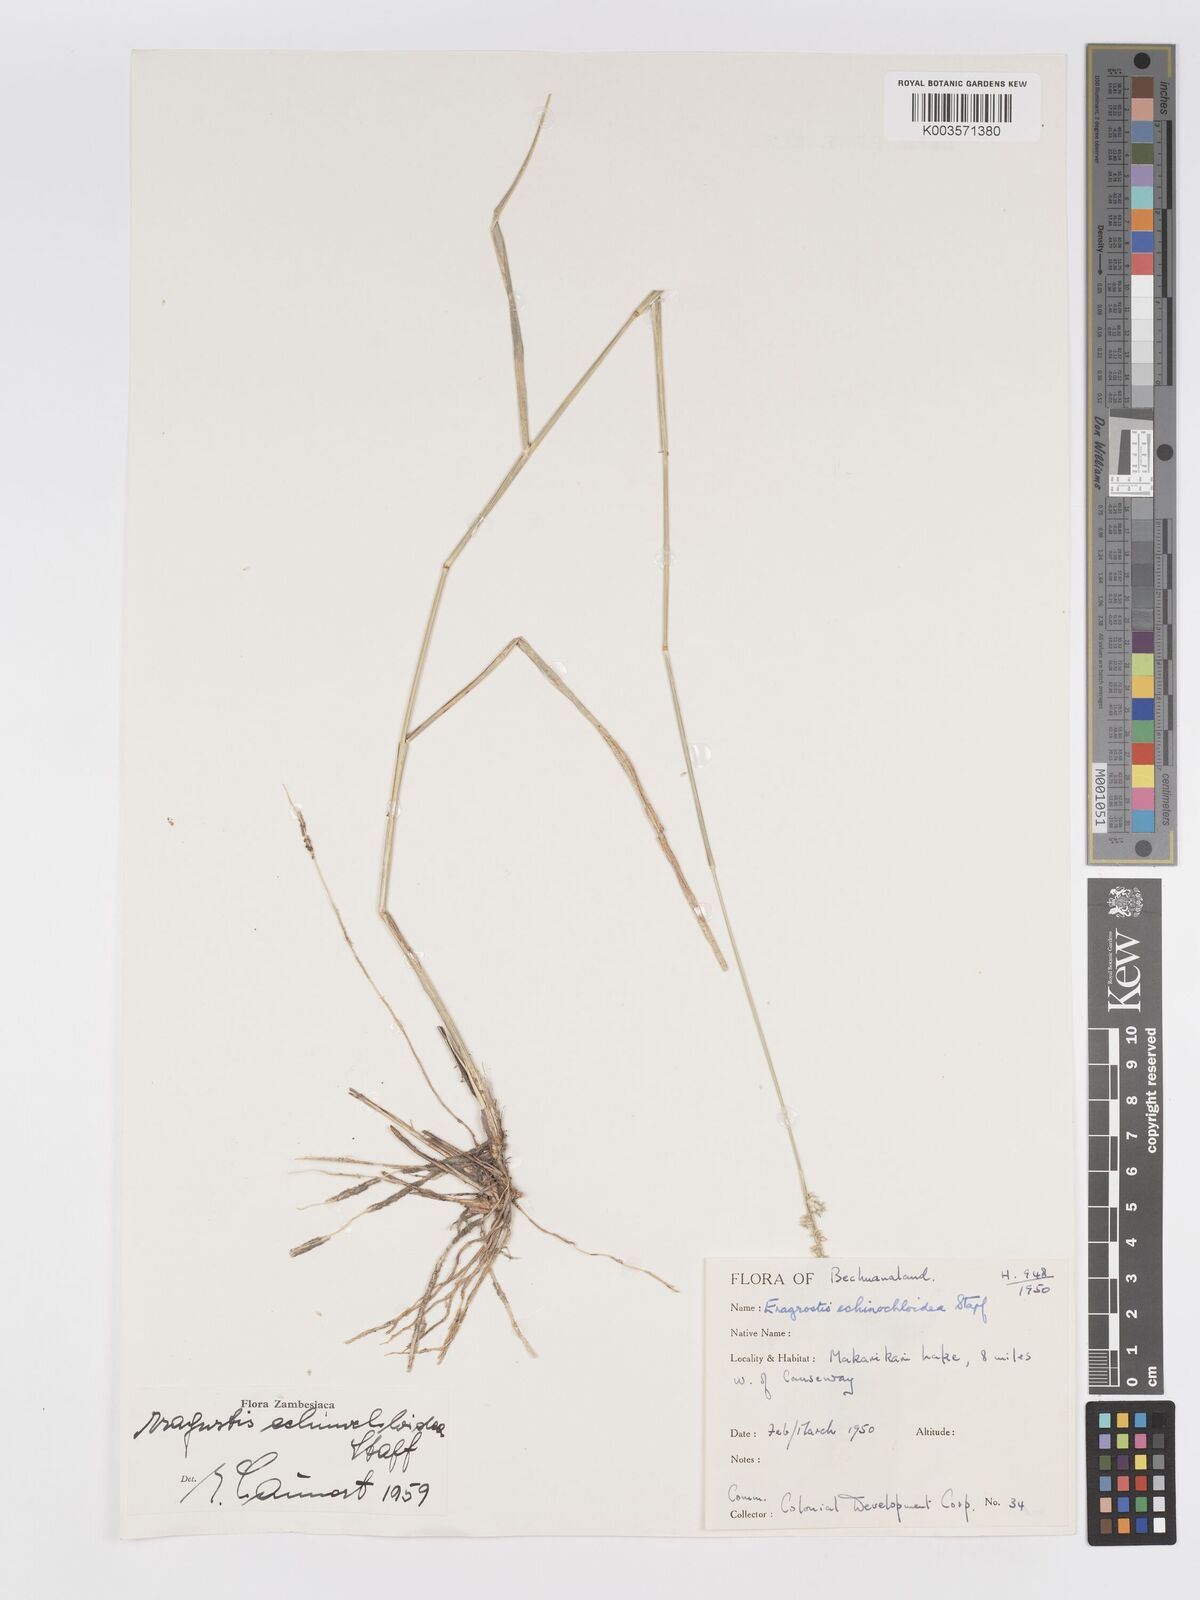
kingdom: Plantae
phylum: Tracheophyta
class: Liliopsida
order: Poales
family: Poaceae
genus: Eragrostis
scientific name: Eragrostis echinochloidea
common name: African lovegrass
